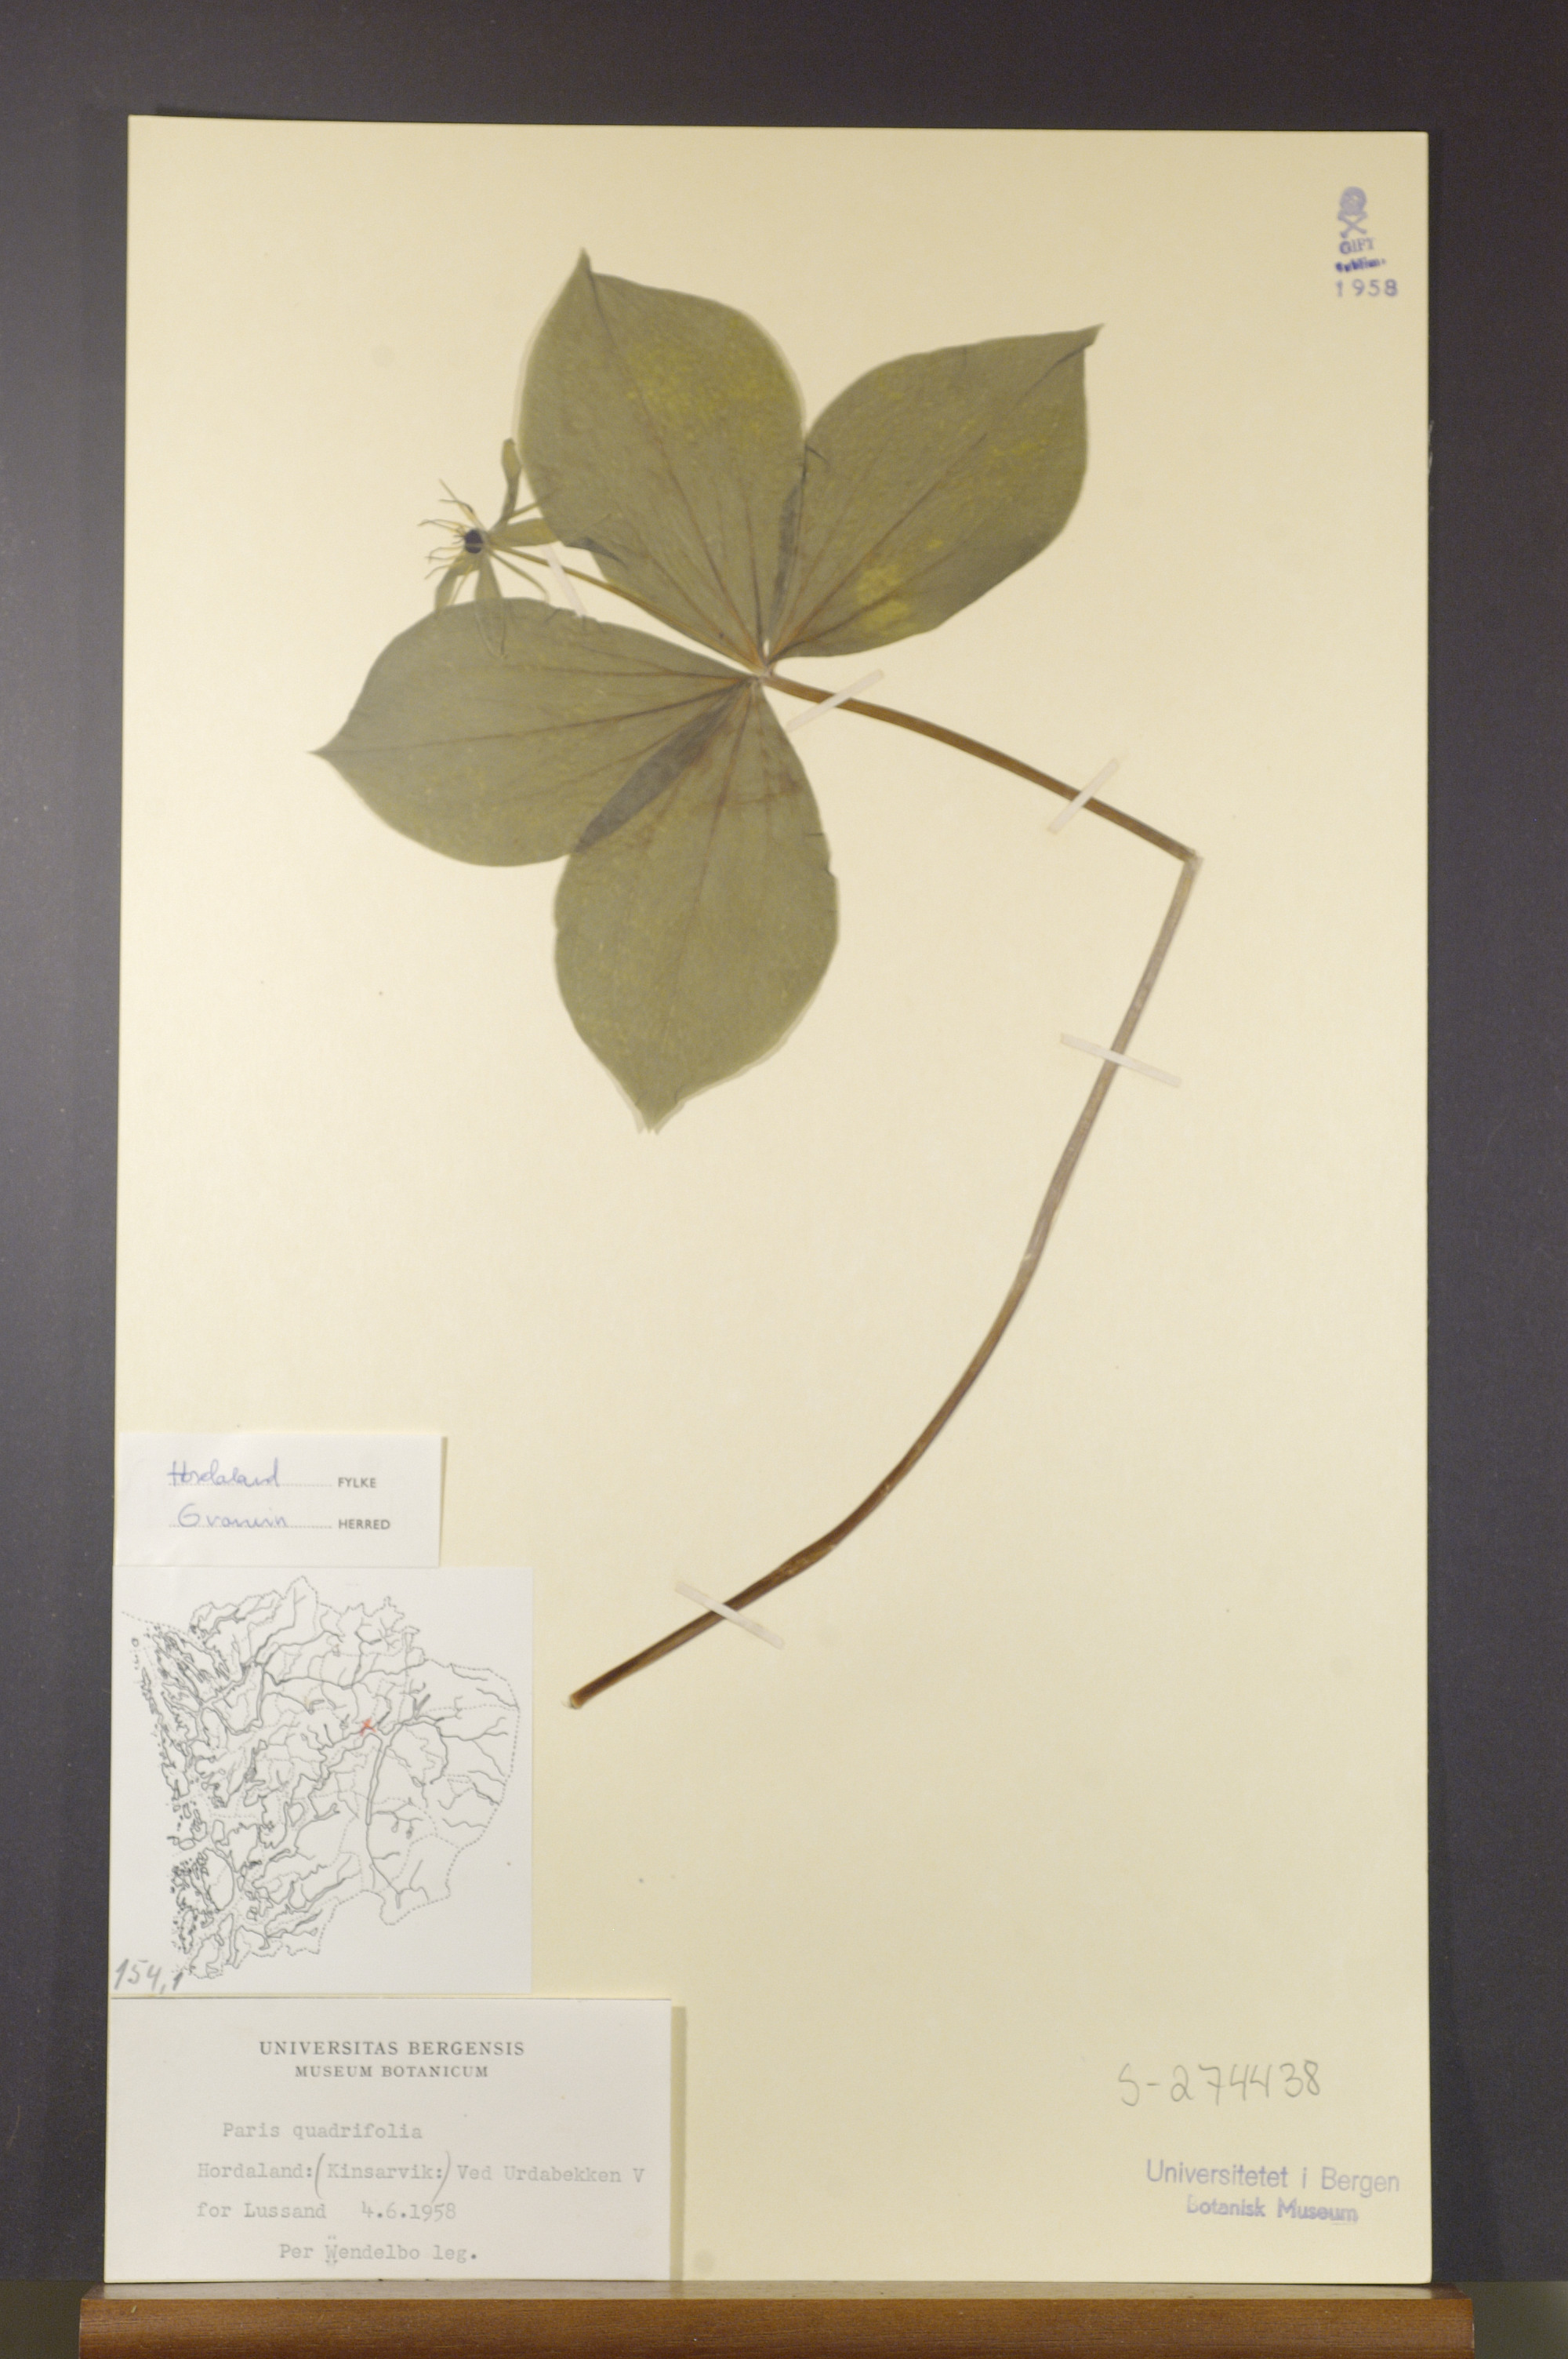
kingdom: Plantae
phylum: Tracheophyta
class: Liliopsida
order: Liliales
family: Melanthiaceae
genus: Paris
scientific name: Paris quadrifolia
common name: Herb-paris
